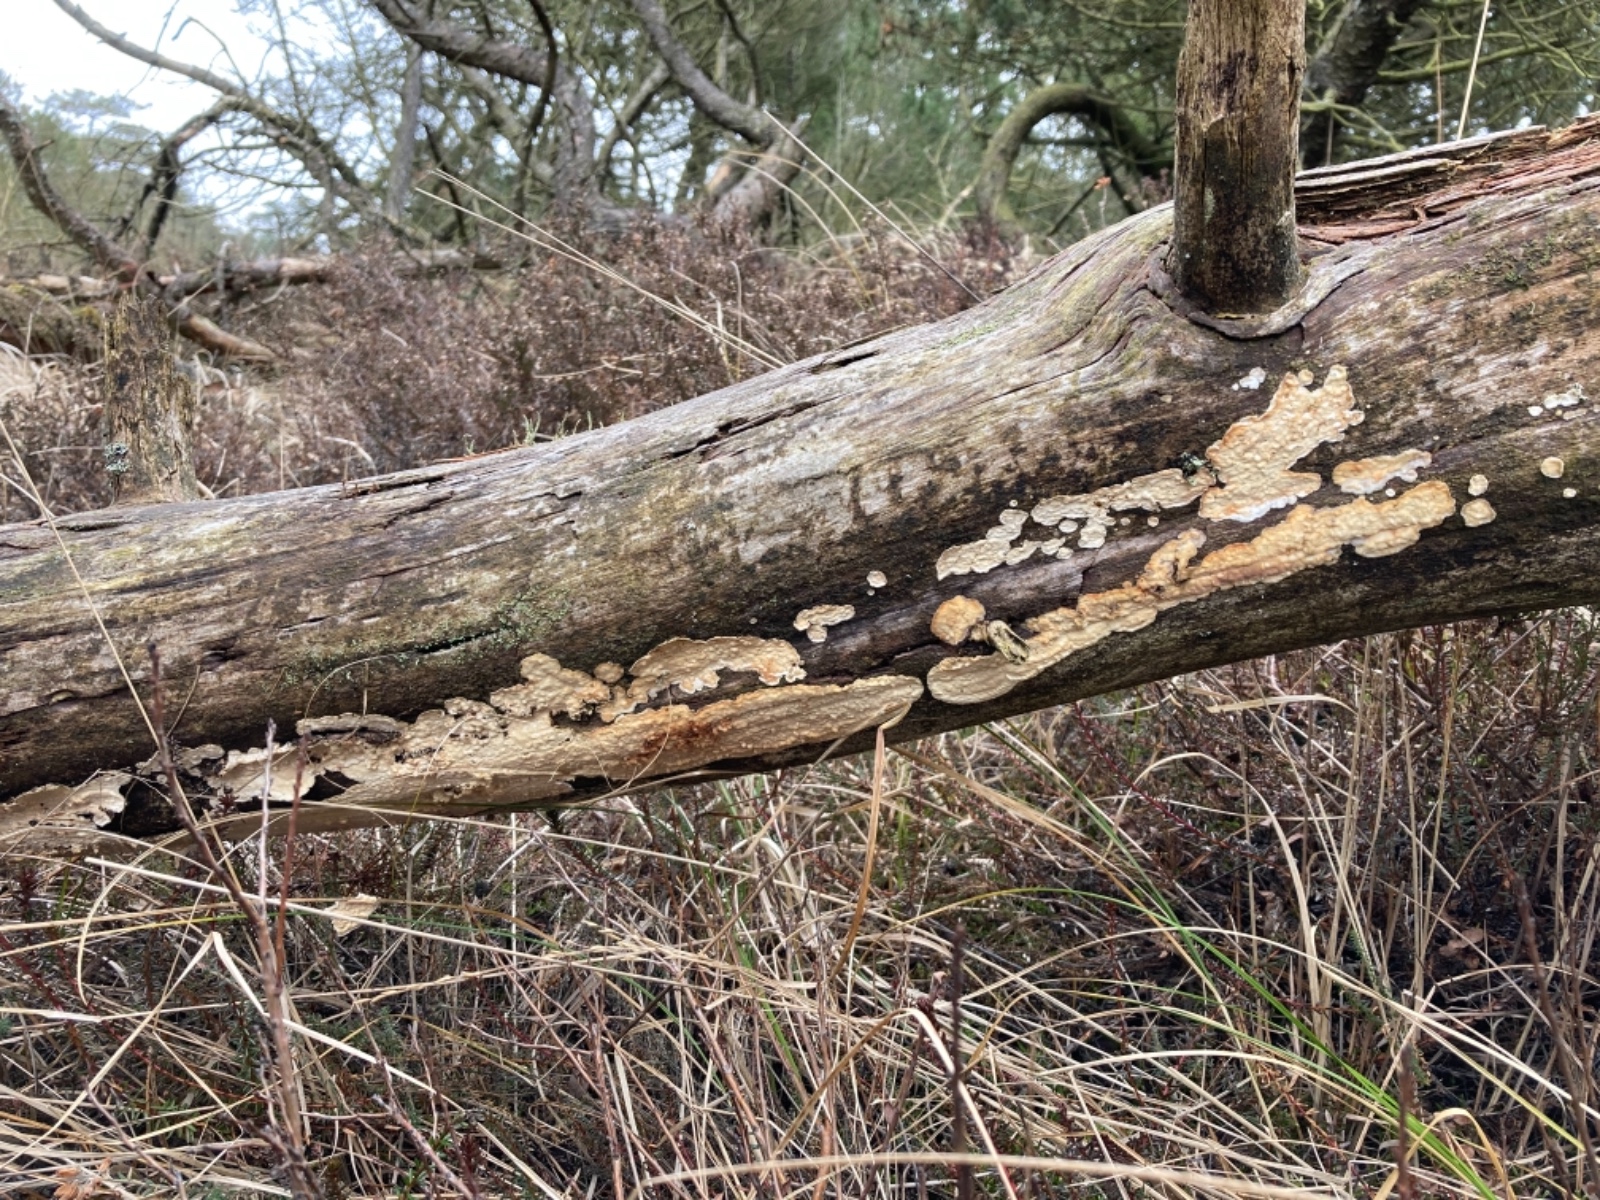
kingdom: Fungi
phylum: Basidiomycota
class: Agaricomycetes
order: Polyporales
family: Dacryobolaceae
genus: Dacryobolus
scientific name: Dacryobolus karstenii
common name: glat vulkanskorpe
